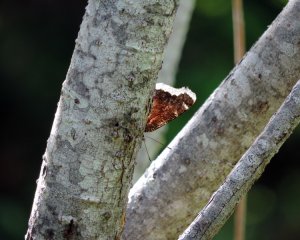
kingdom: Animalia
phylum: Arthropoda
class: Insecta
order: Lepidoptera
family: Nymphalidae
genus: Nymphalis
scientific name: Nymphalis antiopa
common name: Mourning Cloak
